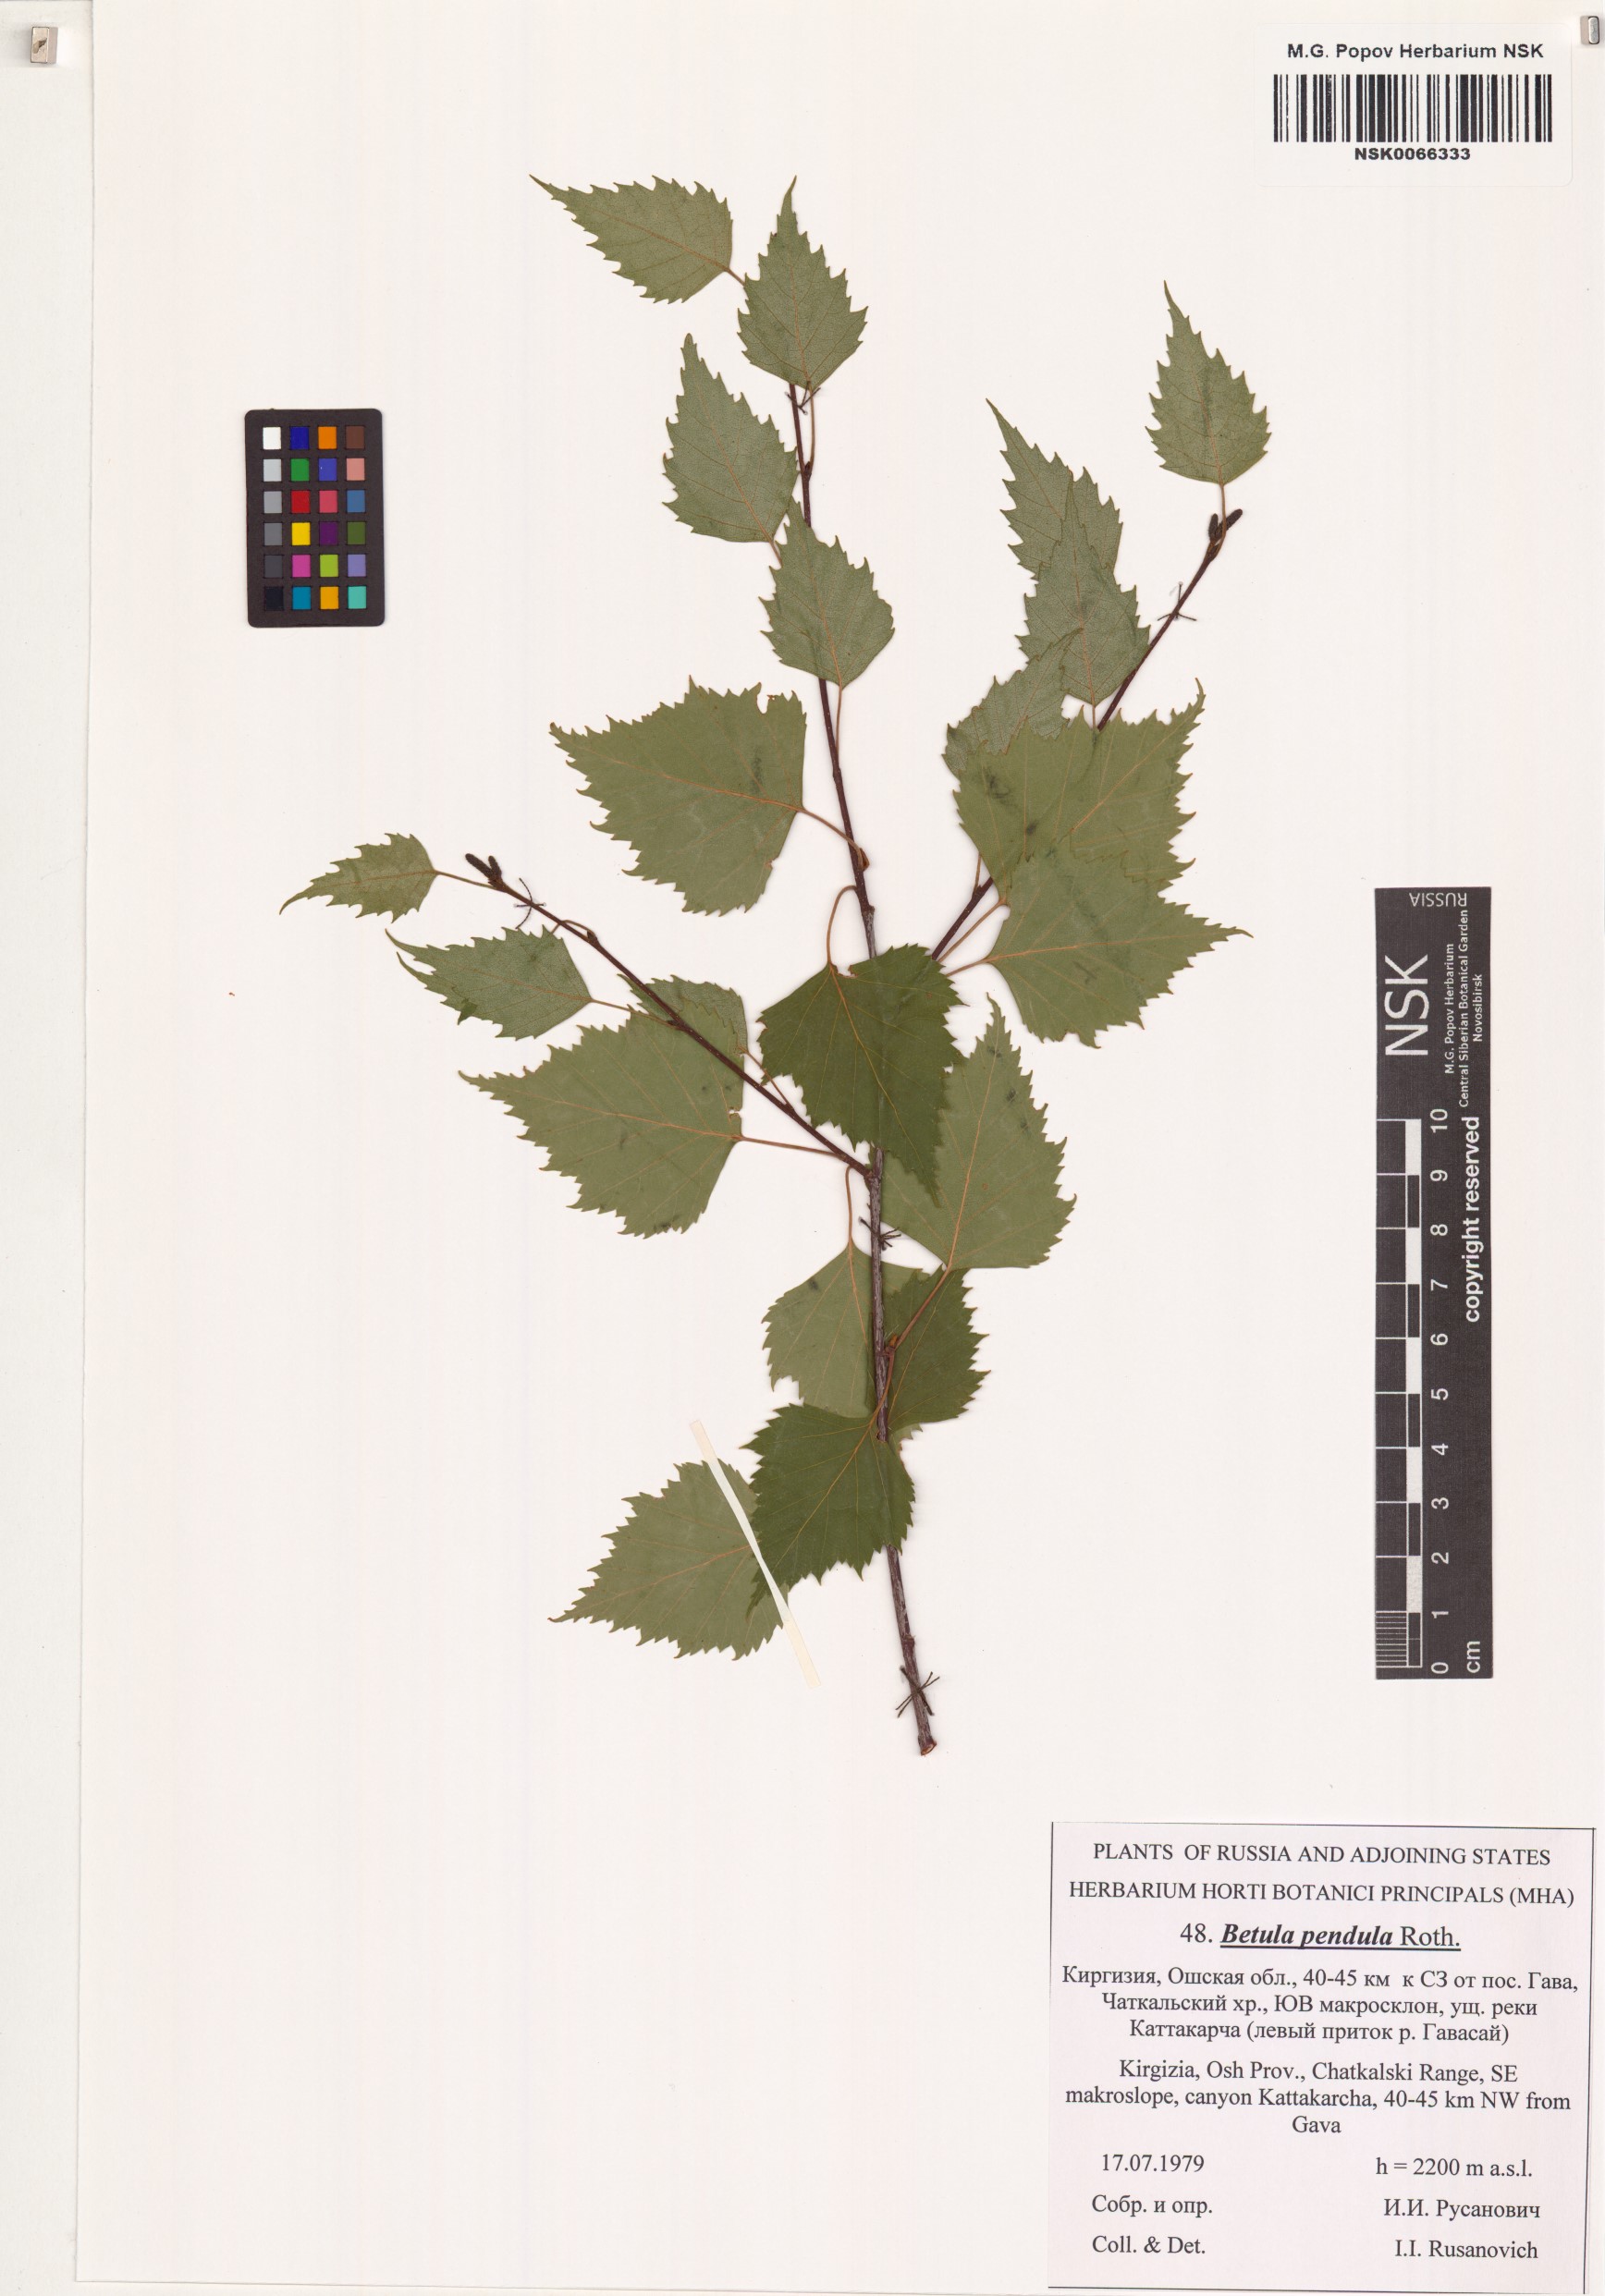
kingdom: Plantae
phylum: Tracheophyta
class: Magnoliopsida
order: Fagales
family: Betulaceae
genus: Betula
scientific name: Betula pendula
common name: Silver birch
